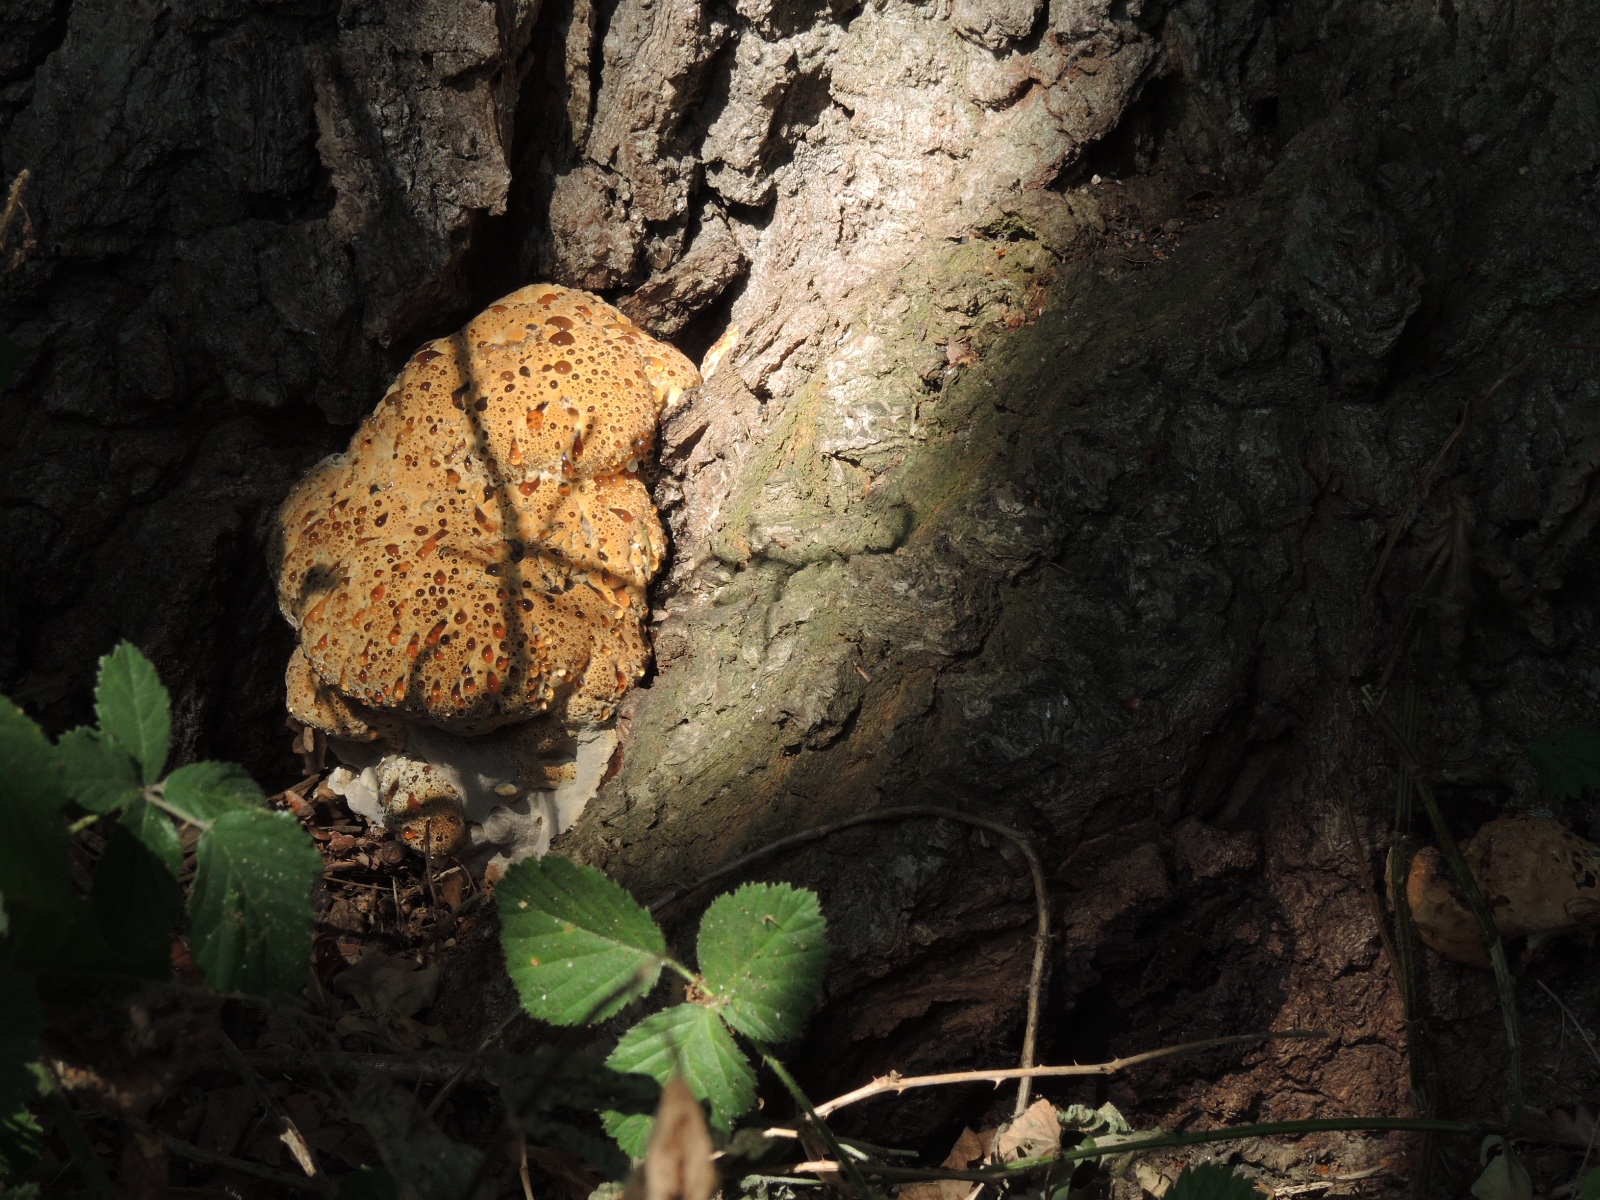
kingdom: Fungi
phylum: Basidiomycota
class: Agaricomycetes
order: Hymenochaetales
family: Hymenochaetaceae
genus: Pseudoinonotus
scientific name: Pseudoinonotus dryadeus
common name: ege-spejlporesvamp
